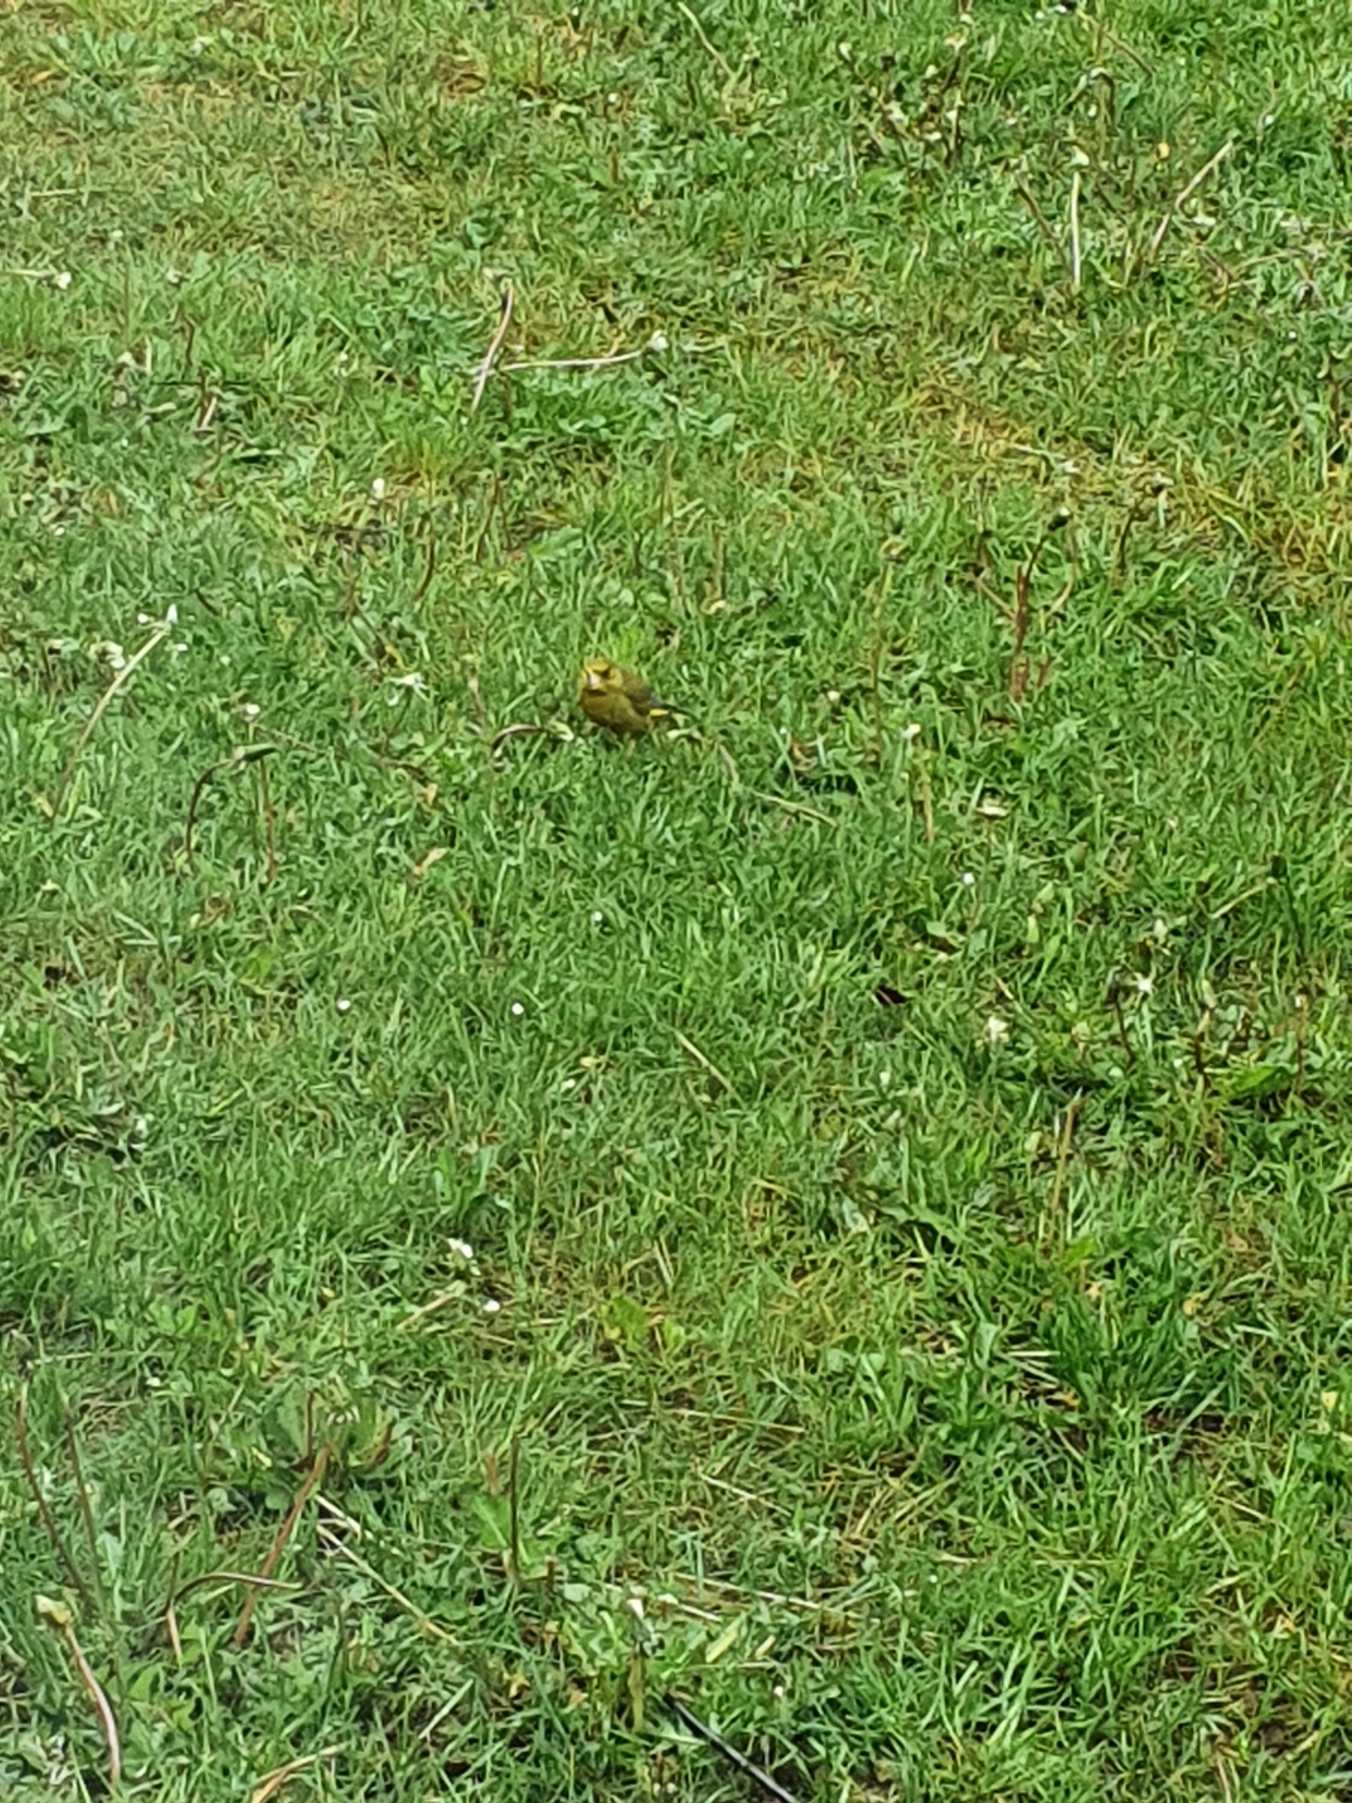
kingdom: Plantae
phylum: Tracheophyta
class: Liliopsida
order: Poales
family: Poaceae
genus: Chloris
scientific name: Chloris chloris
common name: Grønirisk
